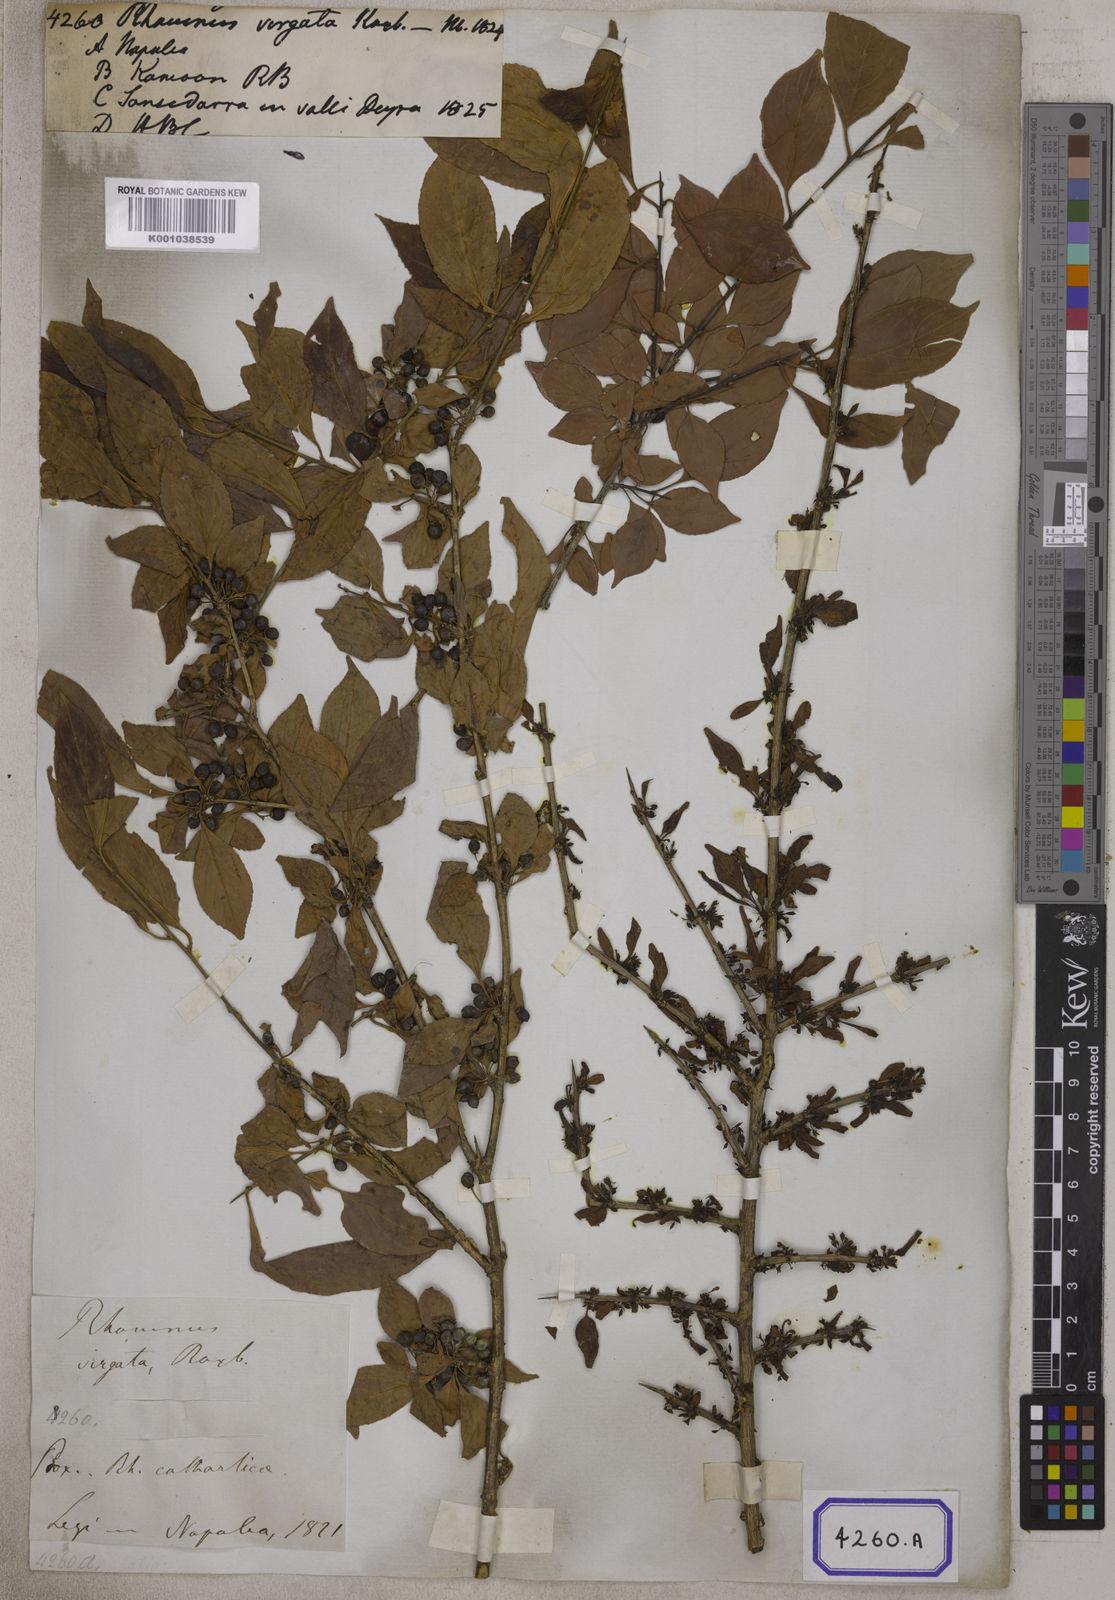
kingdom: Plantae
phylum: Tracheophyta
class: Magnoliopsida
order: Rosales
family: Rhamnaceae
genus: Rhamnus
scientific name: Rhamnus virgata
